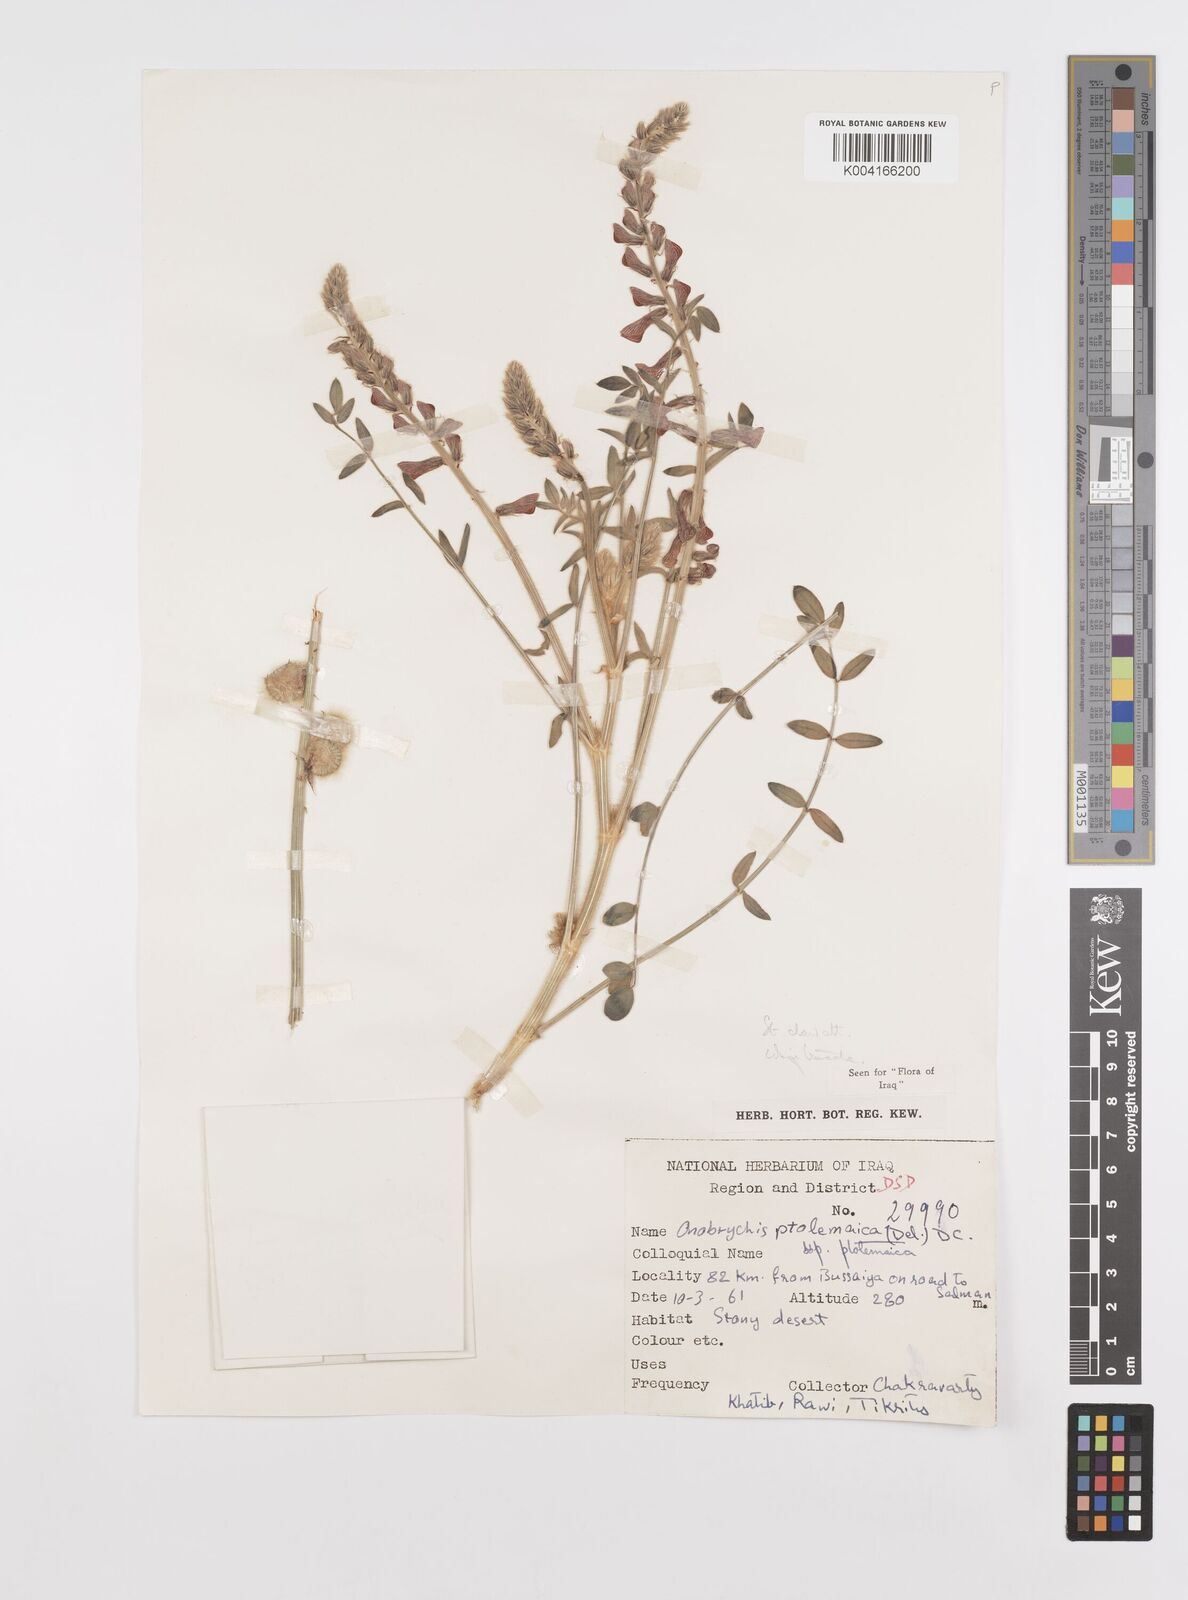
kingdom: Plantae
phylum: Tracheophyta
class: Magnoliopsida
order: Fabales
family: Fabaceae
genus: Onobrychis
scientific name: Onobrychis ptolemaica
